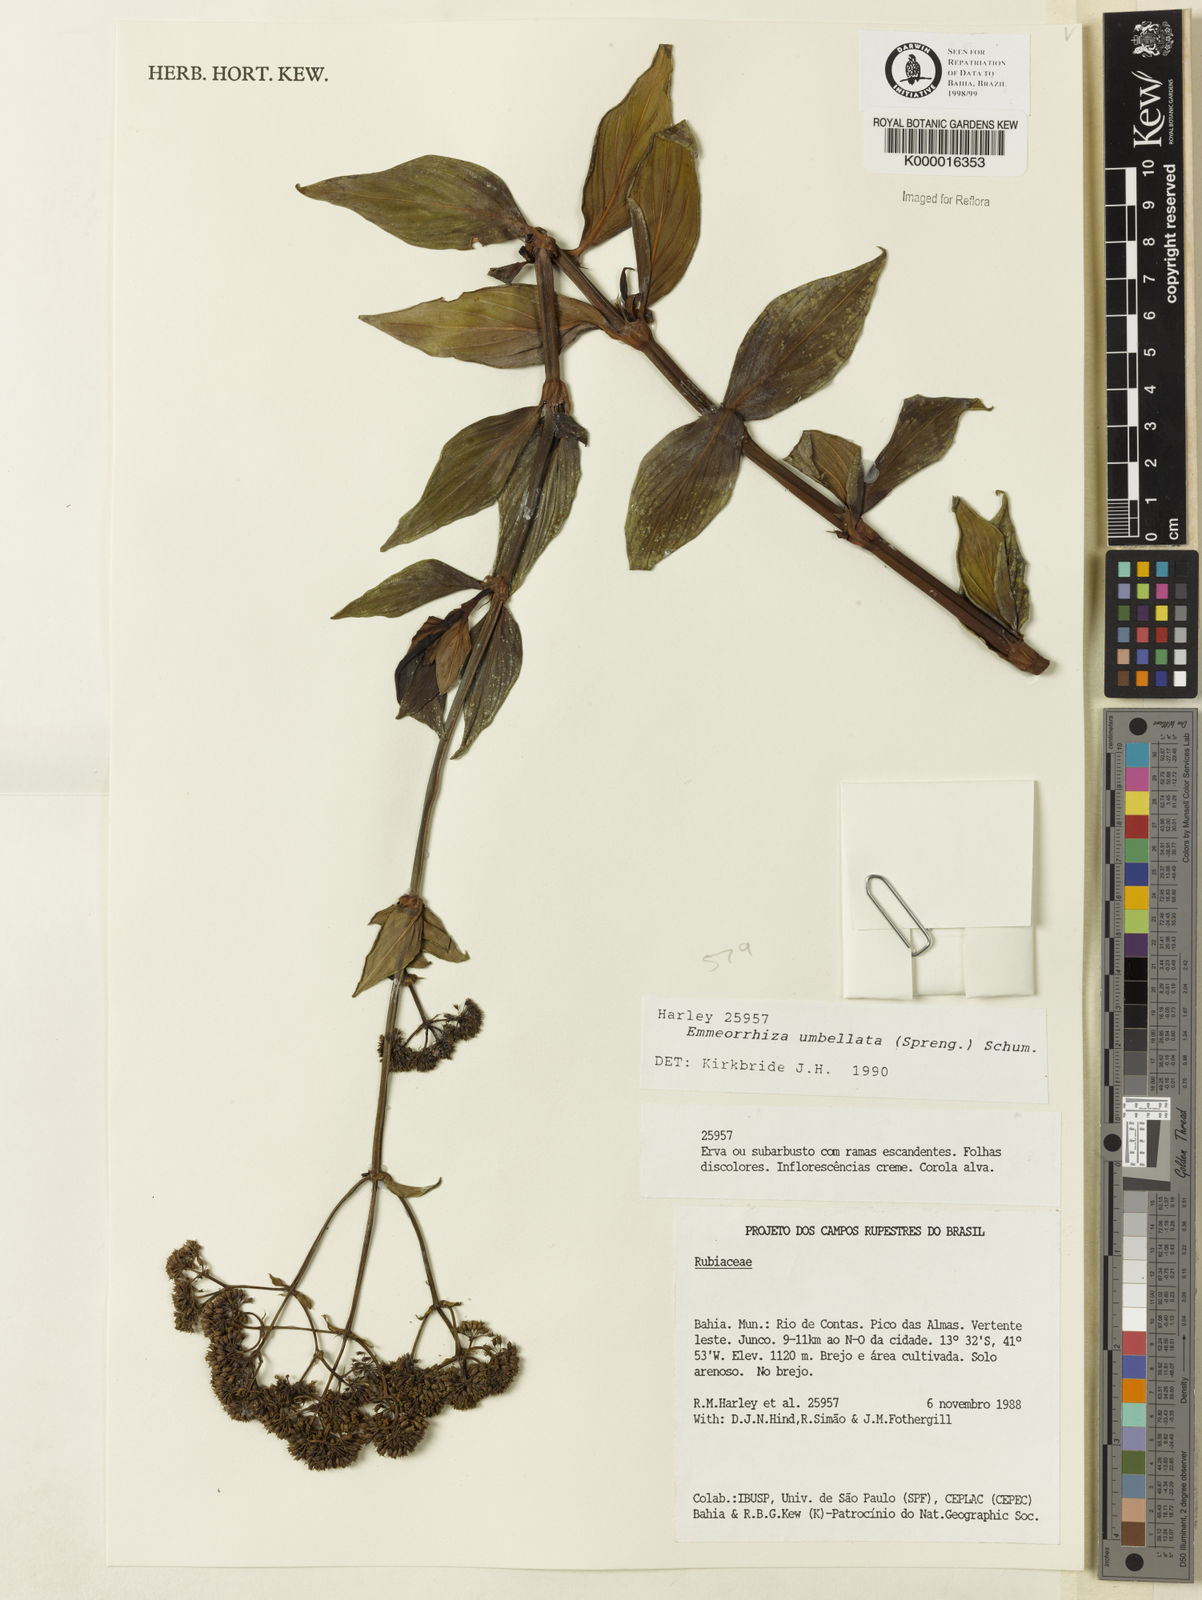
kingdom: Plantae
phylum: Tracheophyta
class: Magnoliopsida
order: Gentianales
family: Rubiaceae
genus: Emmeorhiza
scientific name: Emmeorhiza umbellata
